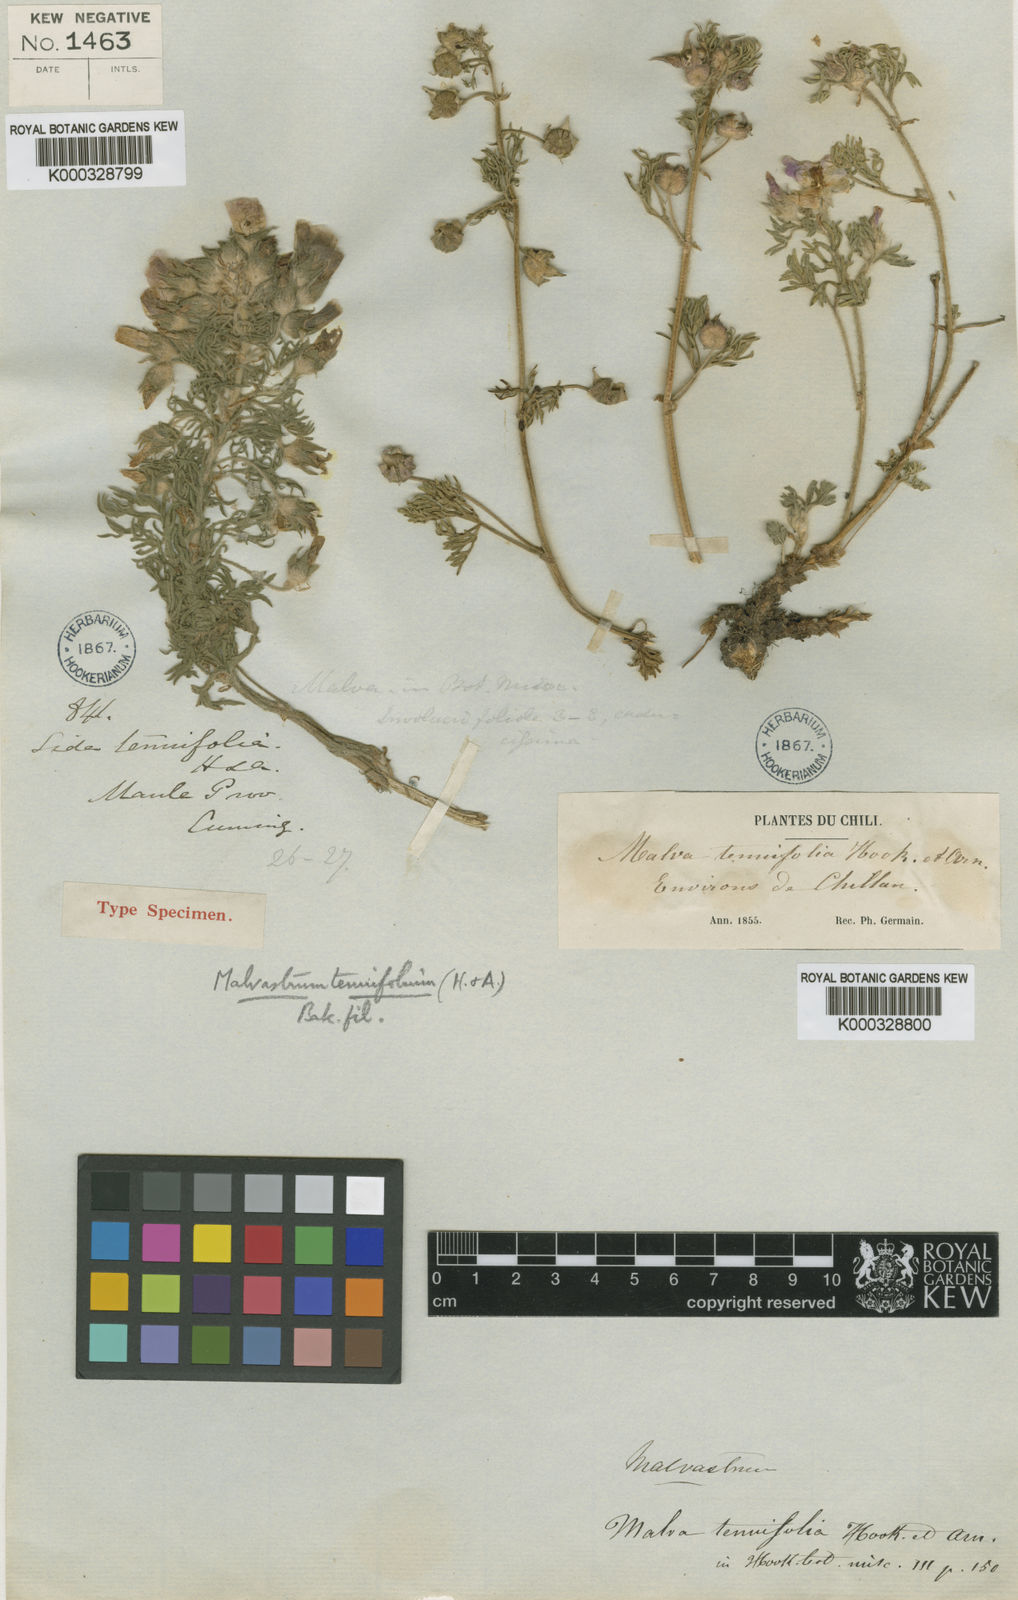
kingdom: Plantae
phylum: Tracheophyta
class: Magnoliopsida
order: Malvales
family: Malvaceae
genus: Sphaeralcea
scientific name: Sphaeralcea purpurata
